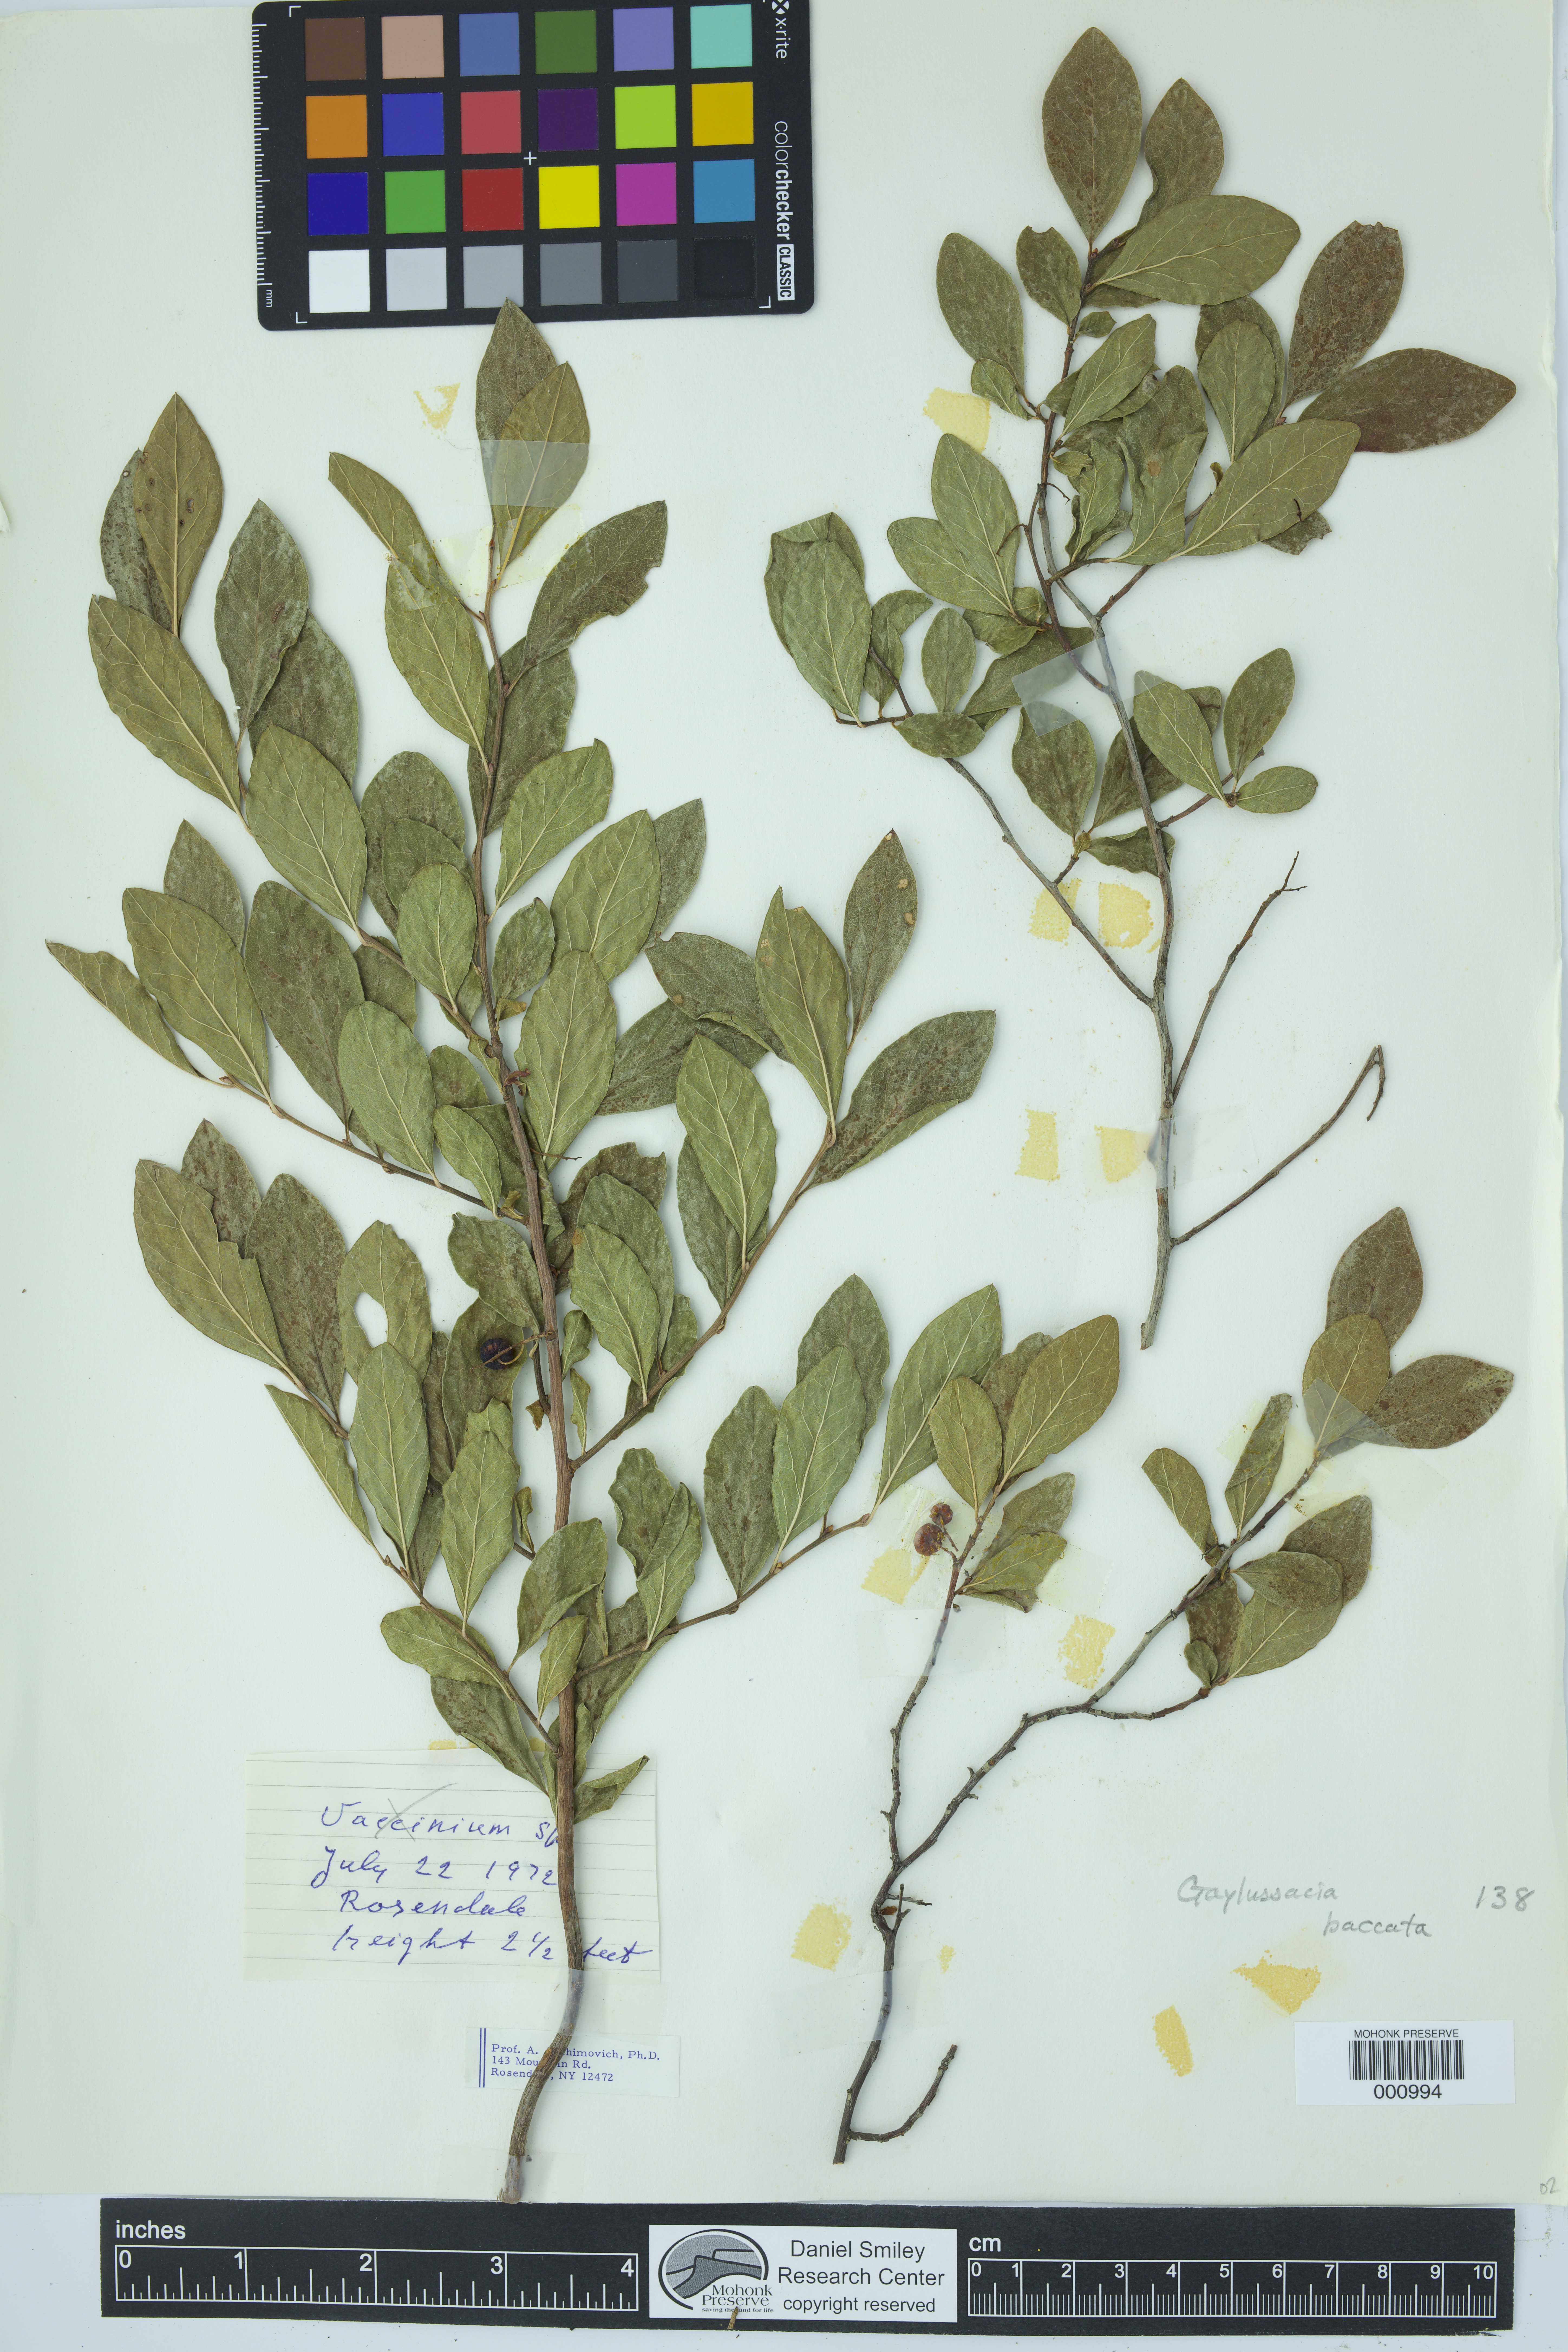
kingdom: Plantae
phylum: Tracheophyta
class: Magnoliopsida
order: Ericales
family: Ericaceae
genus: Gaylussacia
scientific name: Gaylussacia baccata
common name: Black huckleberry
